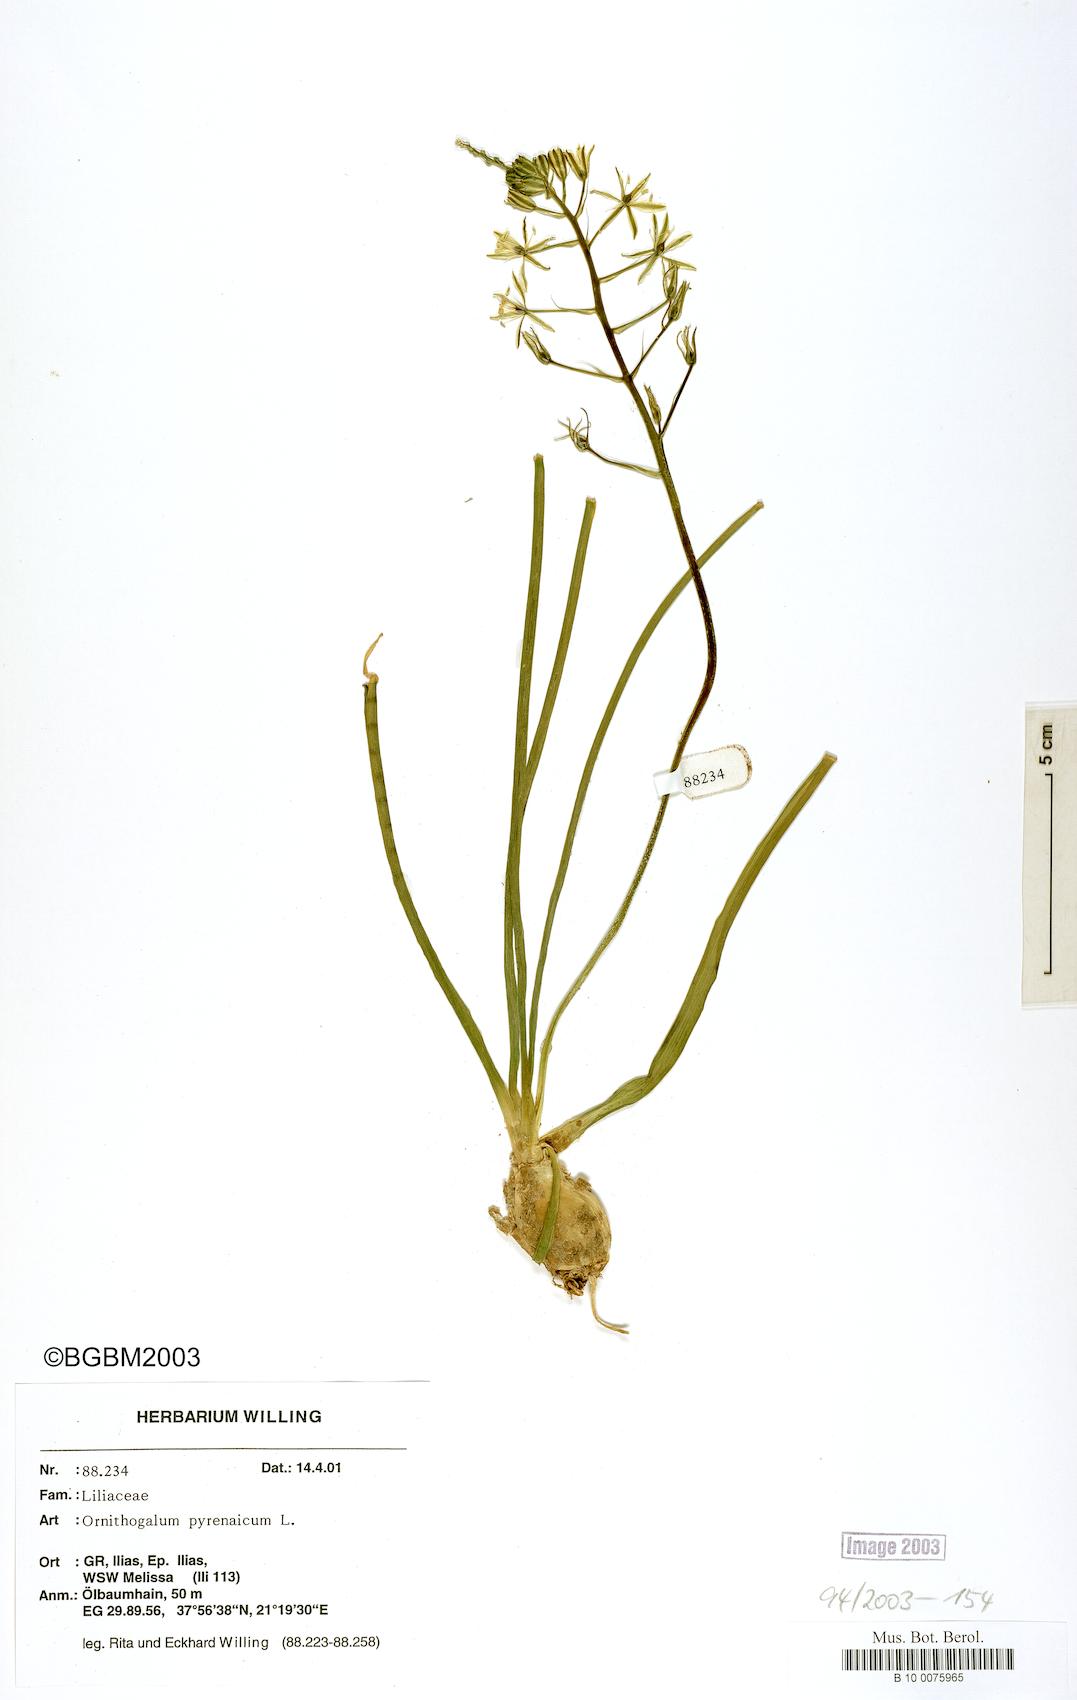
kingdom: Plantae
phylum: Tracheophyta
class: Liliopsida
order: Asparagales
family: Asparagaceae
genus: Ornithogalum
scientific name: Ornithogalum pyrenaicum
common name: Spiked star-of-bethlehem
